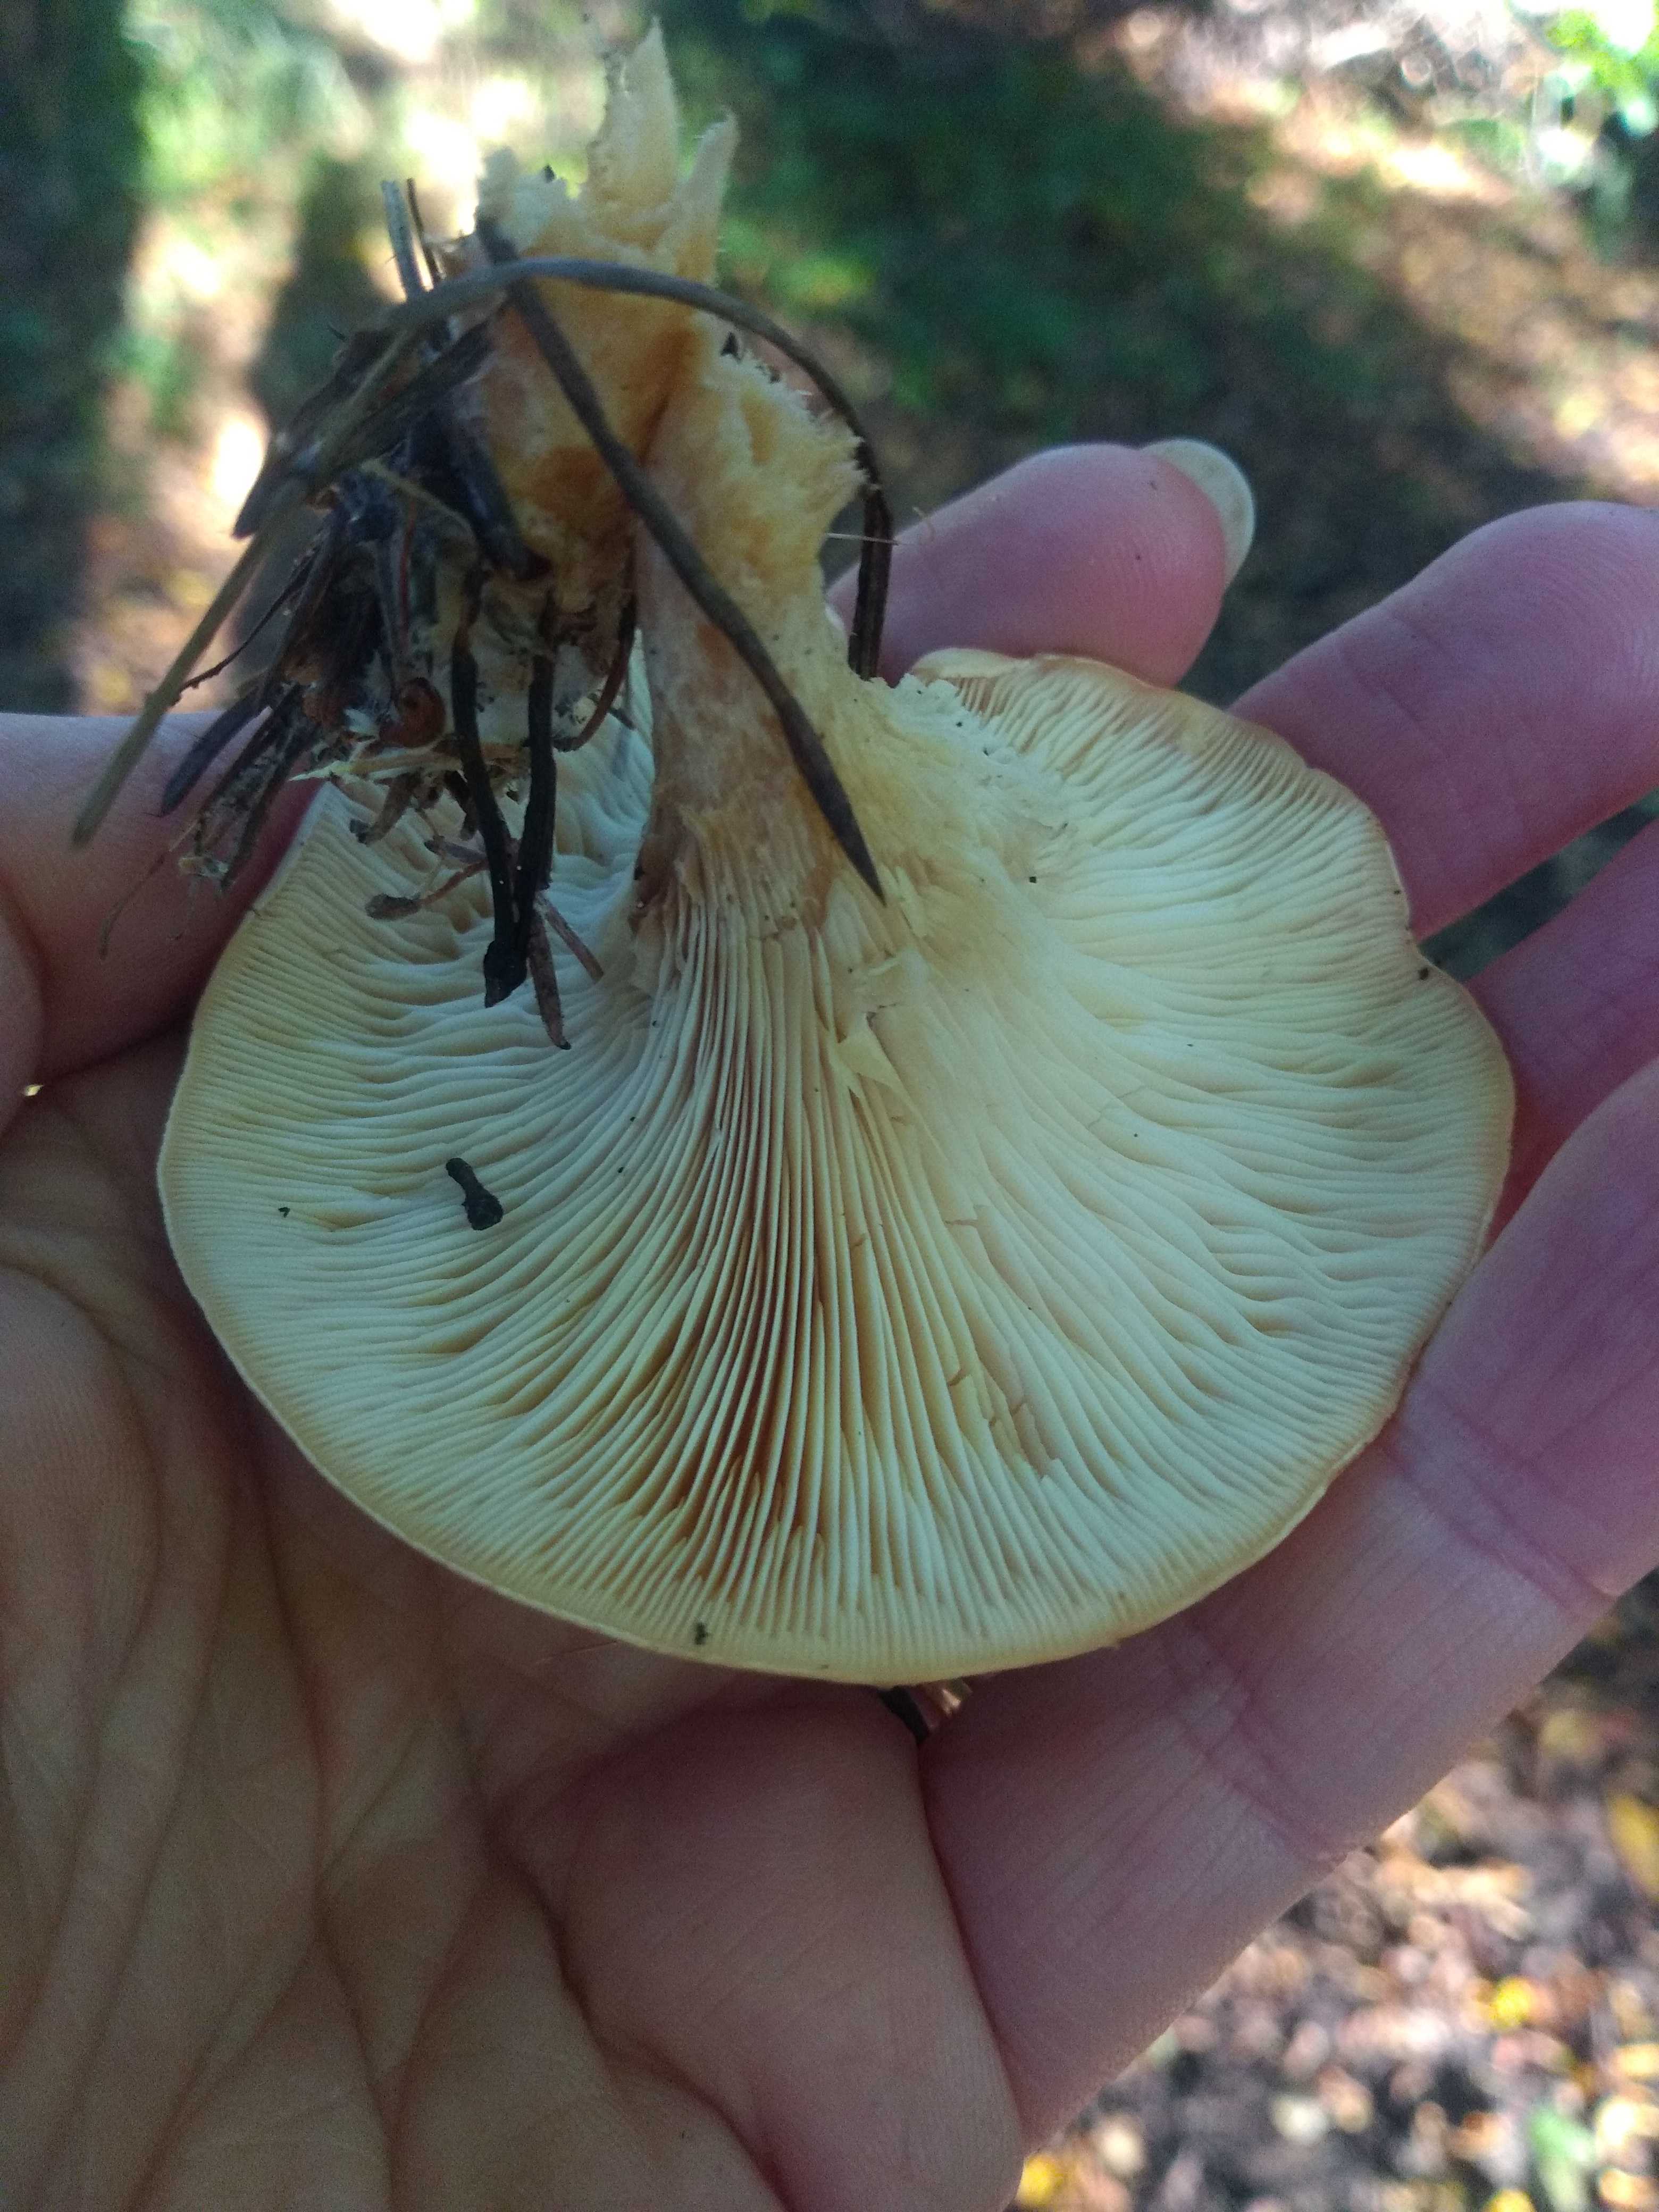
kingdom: Fungi
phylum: Basidiomycota
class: Agaricomycetes
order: Agaricales
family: Tricholomataceae
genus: Paralepista
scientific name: Paralepista flaccida
